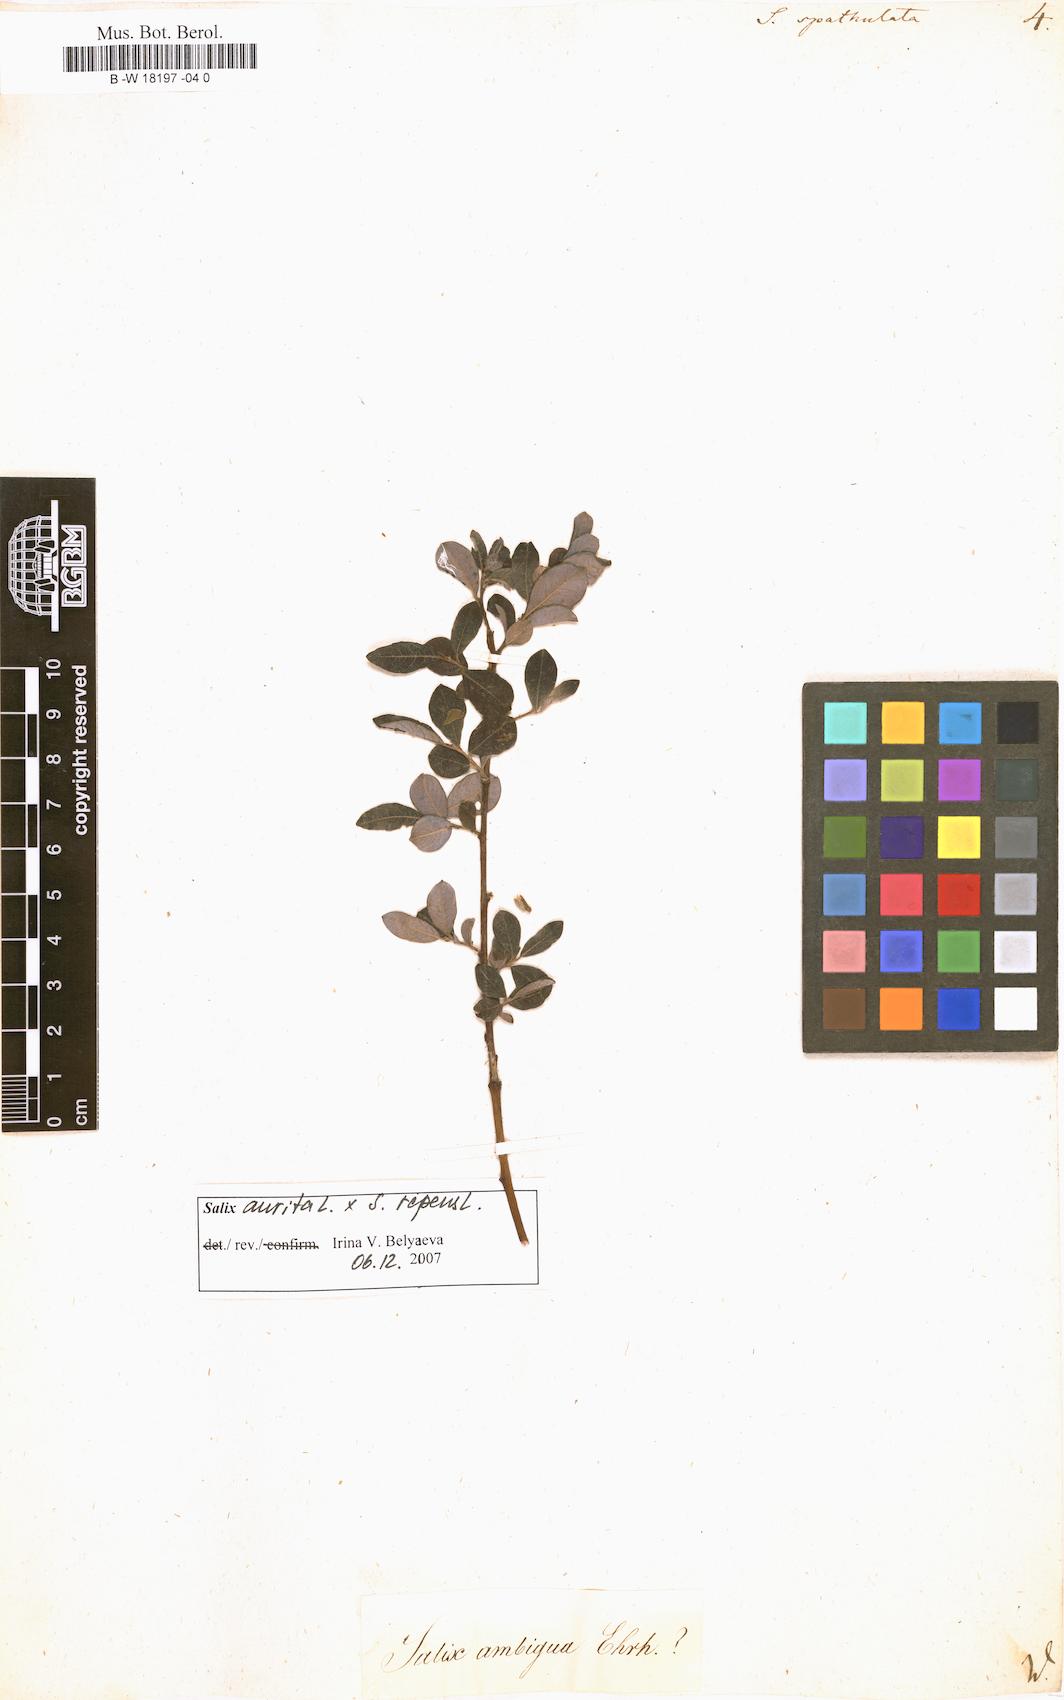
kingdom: Plantae
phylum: Tracheophyta
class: Magnoliopsida
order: Malpighiales
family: Salicaceae
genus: Salix
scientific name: Salix
